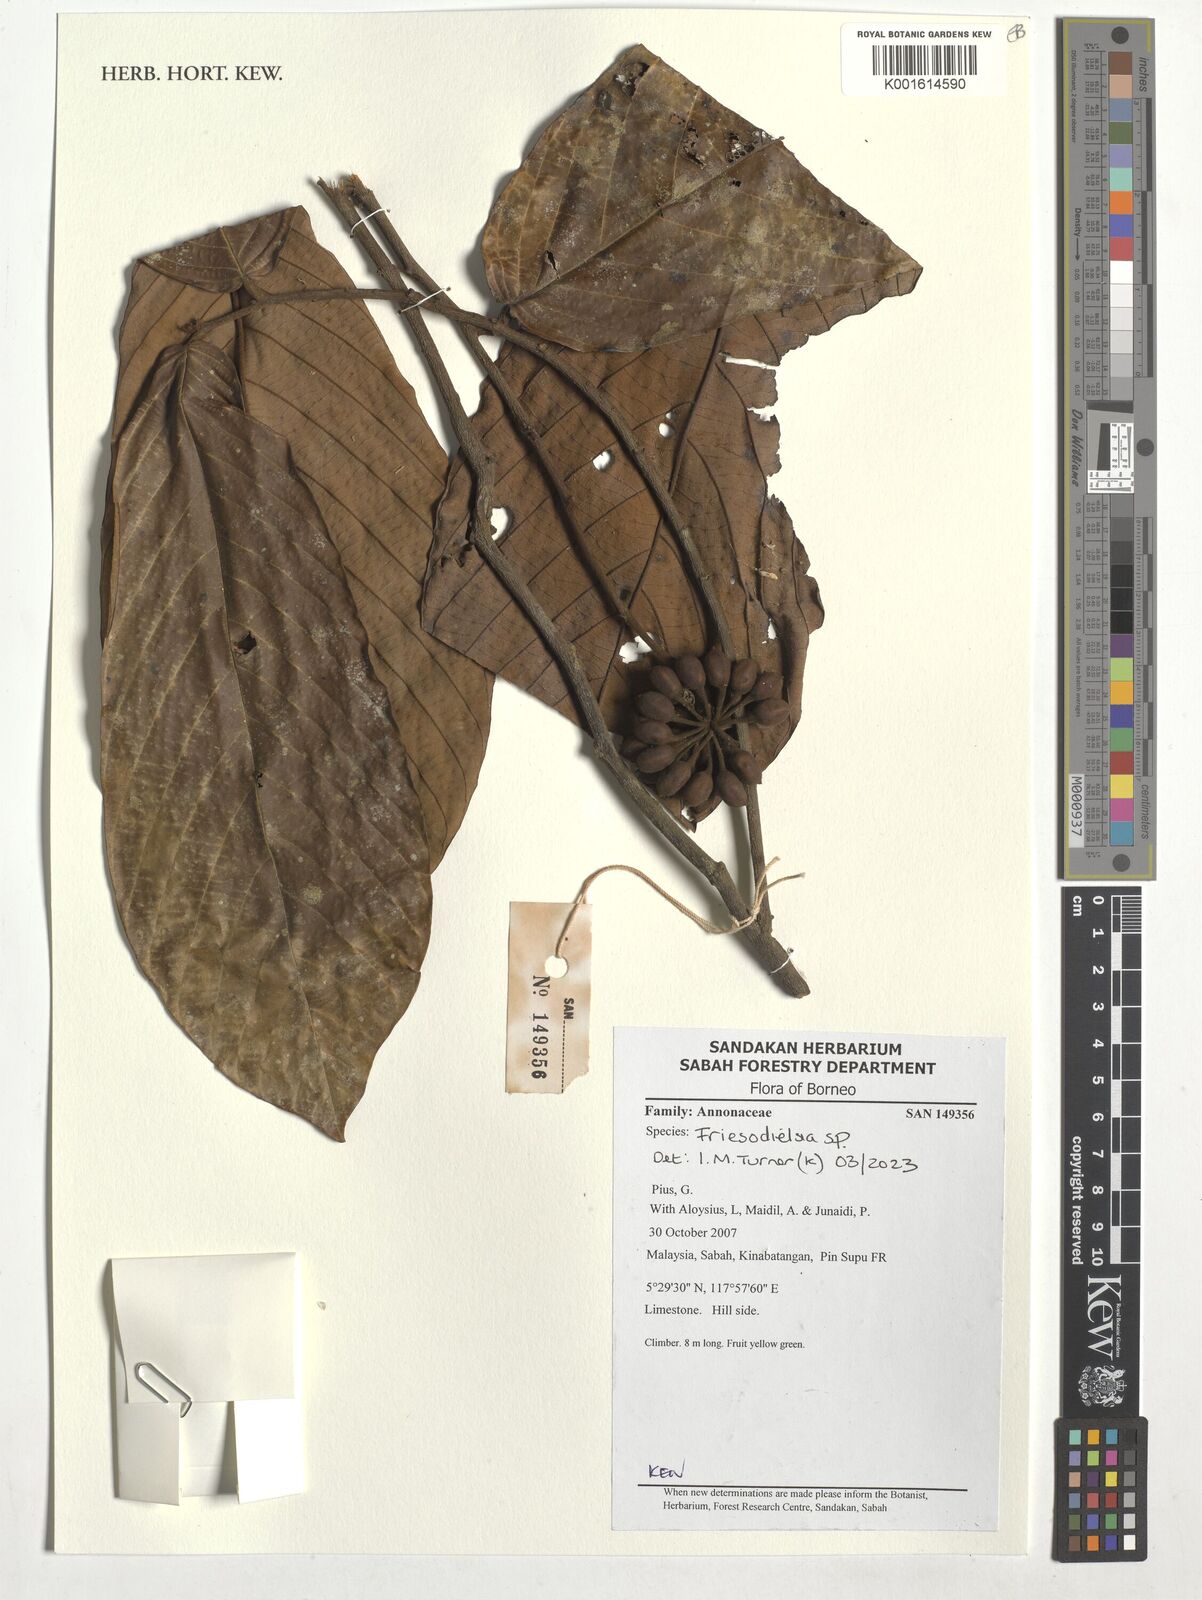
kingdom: Plantae
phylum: Tracheophyta
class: Magnoliopsida
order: Magnoliales
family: Annonaceae
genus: Friesodielsia
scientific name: Friesodielsia
